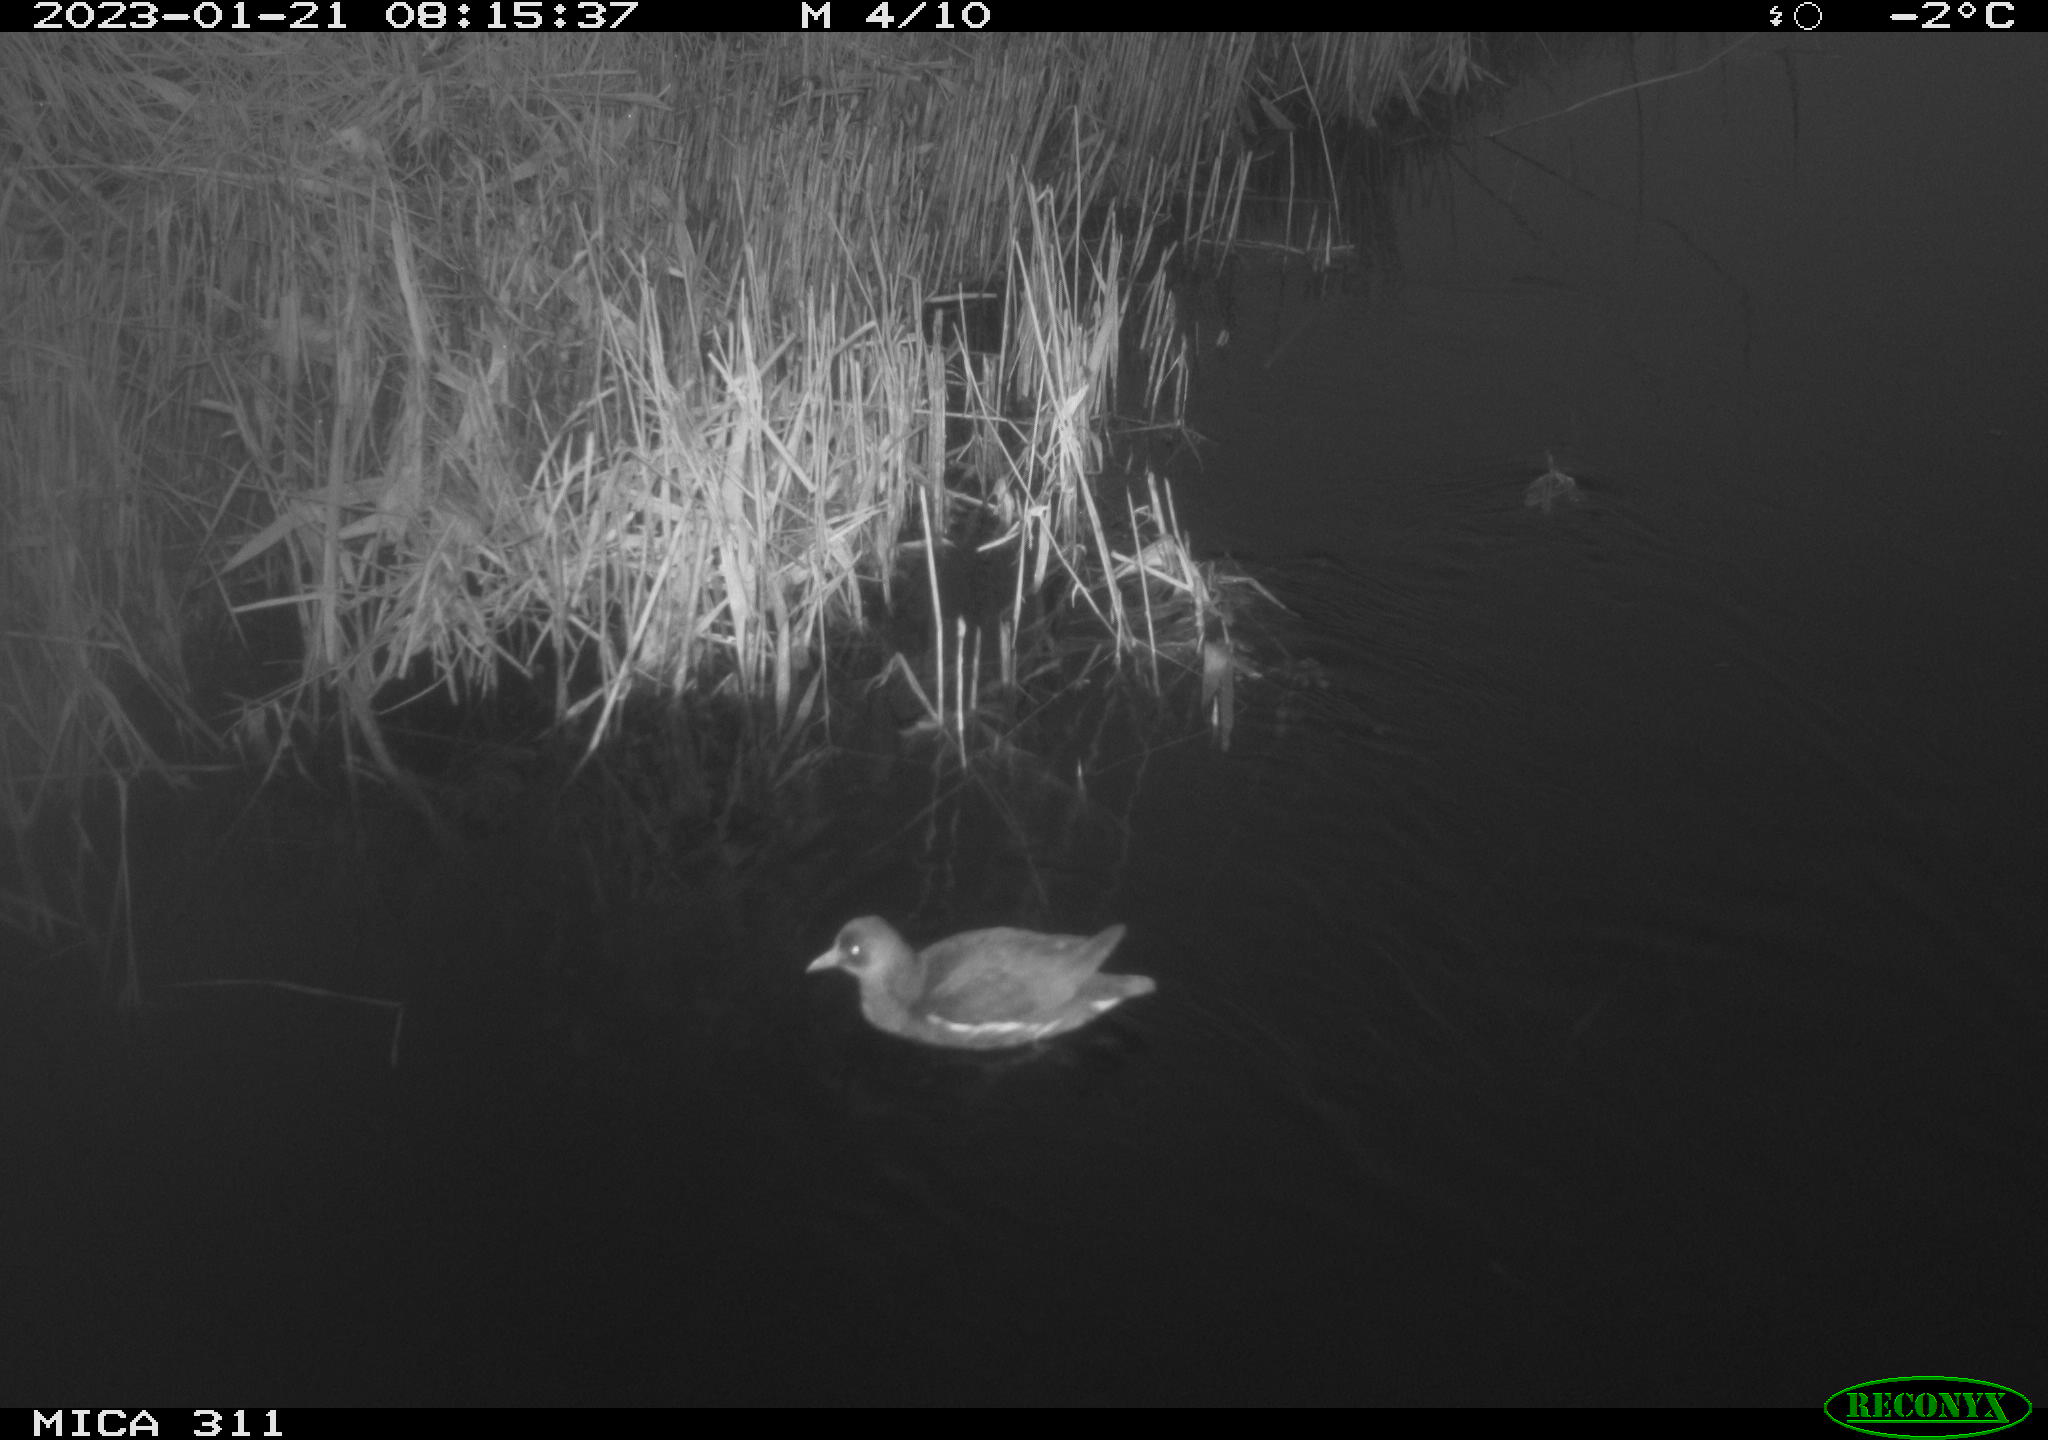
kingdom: Animalia
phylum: Chordata
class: Aves
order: Gruiformes
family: Rallidae
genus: Gallinula
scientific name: Gallinula chloropus
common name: Common moorhen
